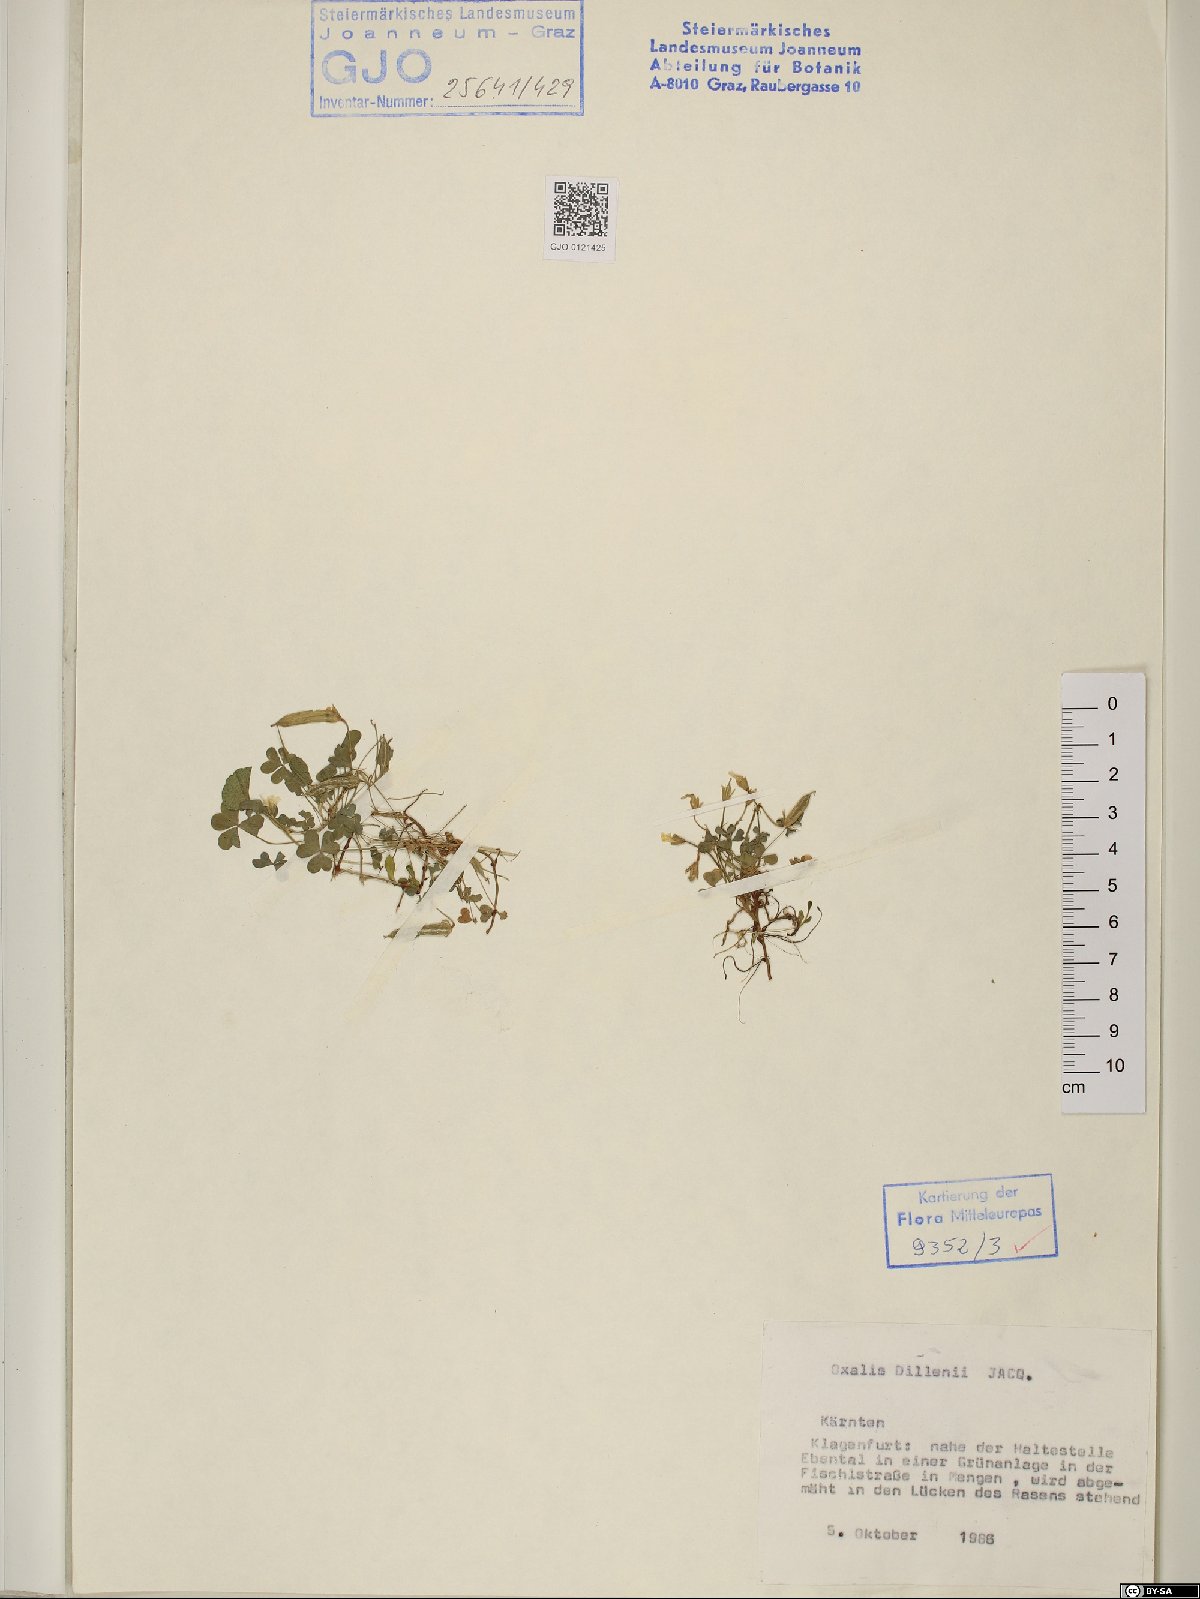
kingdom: Plantae
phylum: Tracheophyta
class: Magnoliopsida
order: Oxalidales
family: Oxalidaceae
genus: Oxalis
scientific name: Oxalis dillenii
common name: Sussex yellow-sorrel
